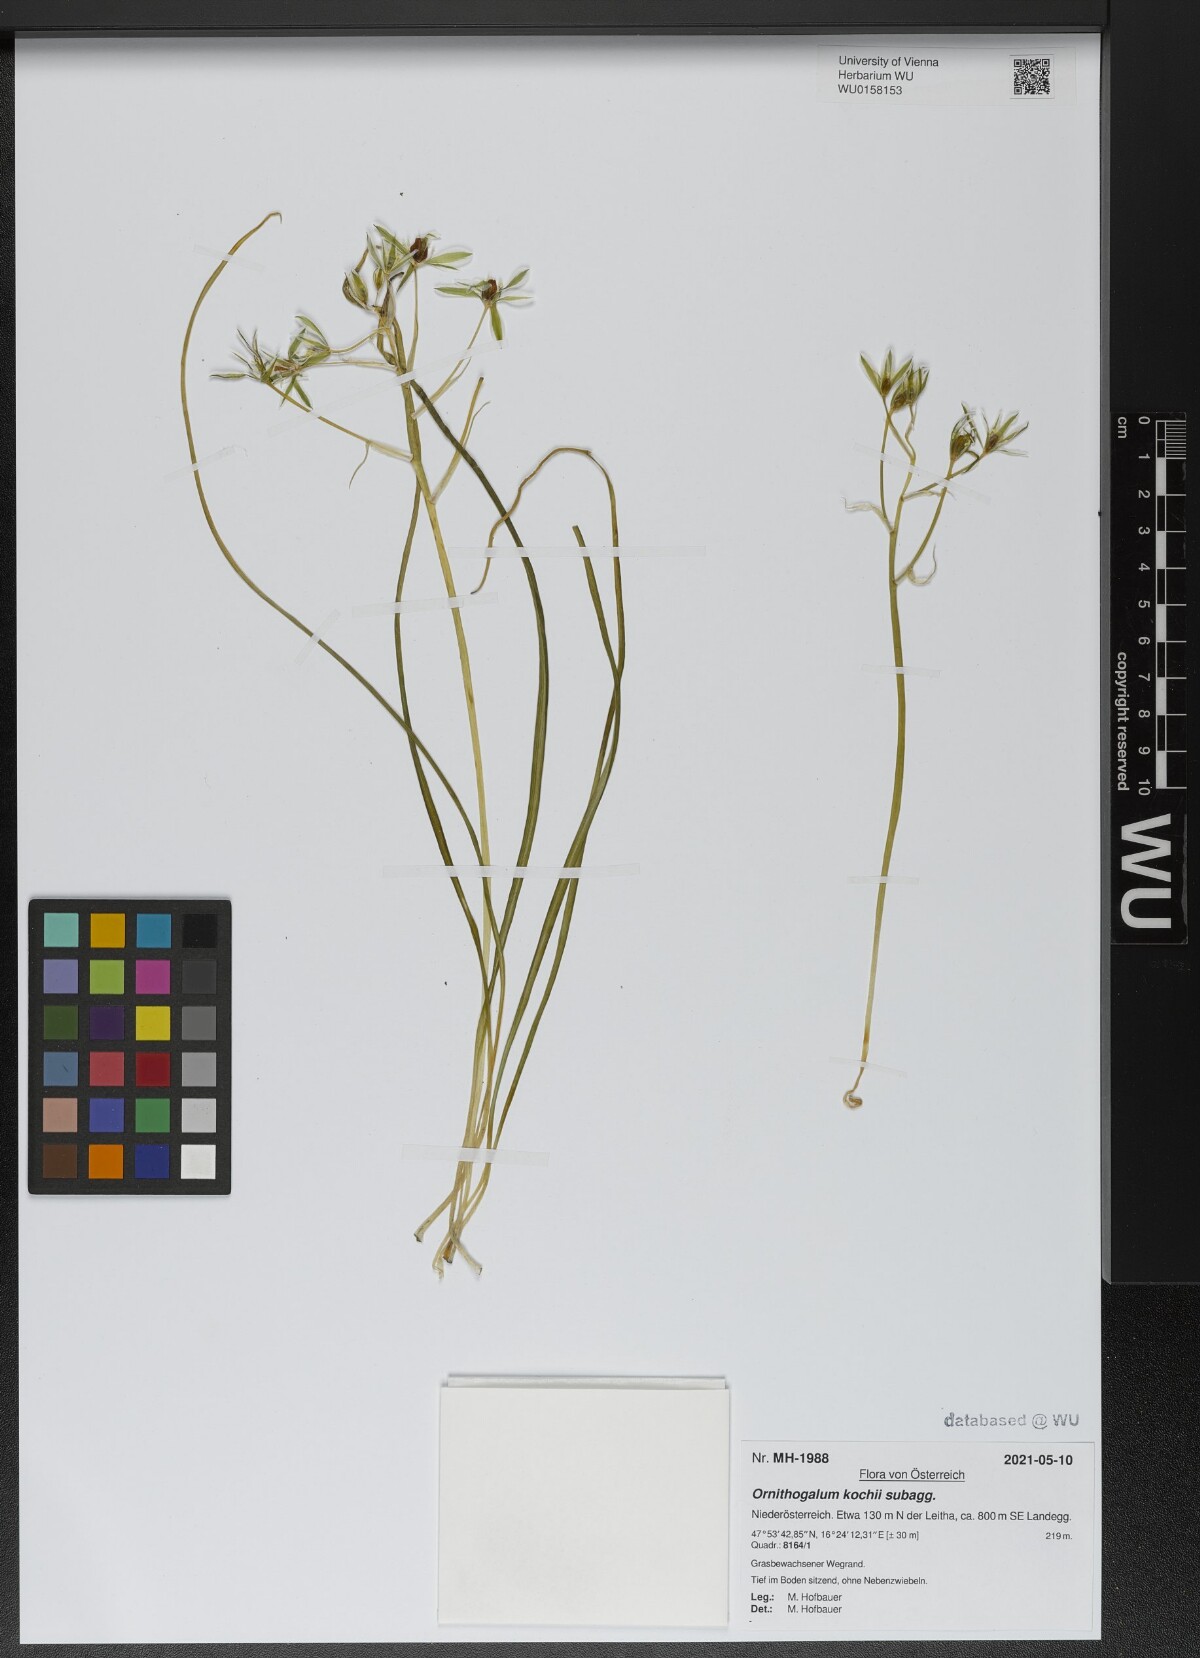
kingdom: Plantae
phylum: Tracheophyta
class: Liliopsida
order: Asparagales
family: Asparagaceae
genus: Ornithogalum
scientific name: Ornithogalum orthophyllum
